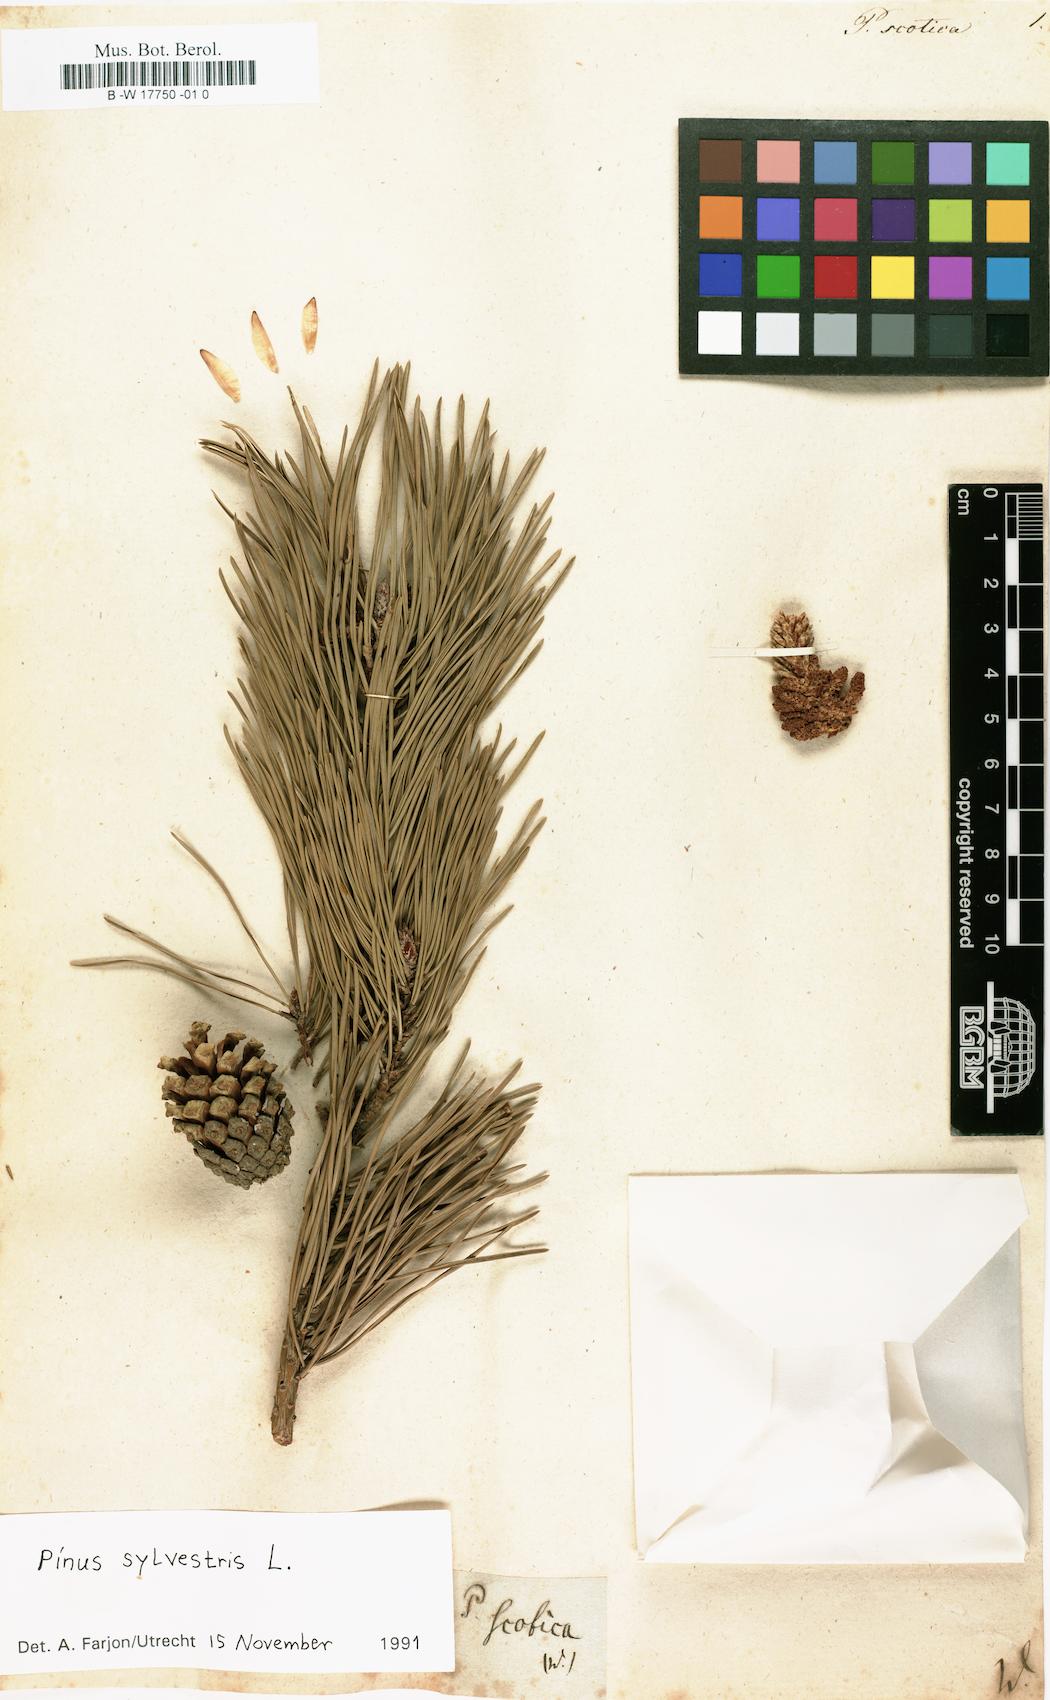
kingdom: Plantae
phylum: Tracheophyta
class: Pinopsida
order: Pinales
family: Pinaceae
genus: Pinus
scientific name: Pinus sylvestris
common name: Scots pine
